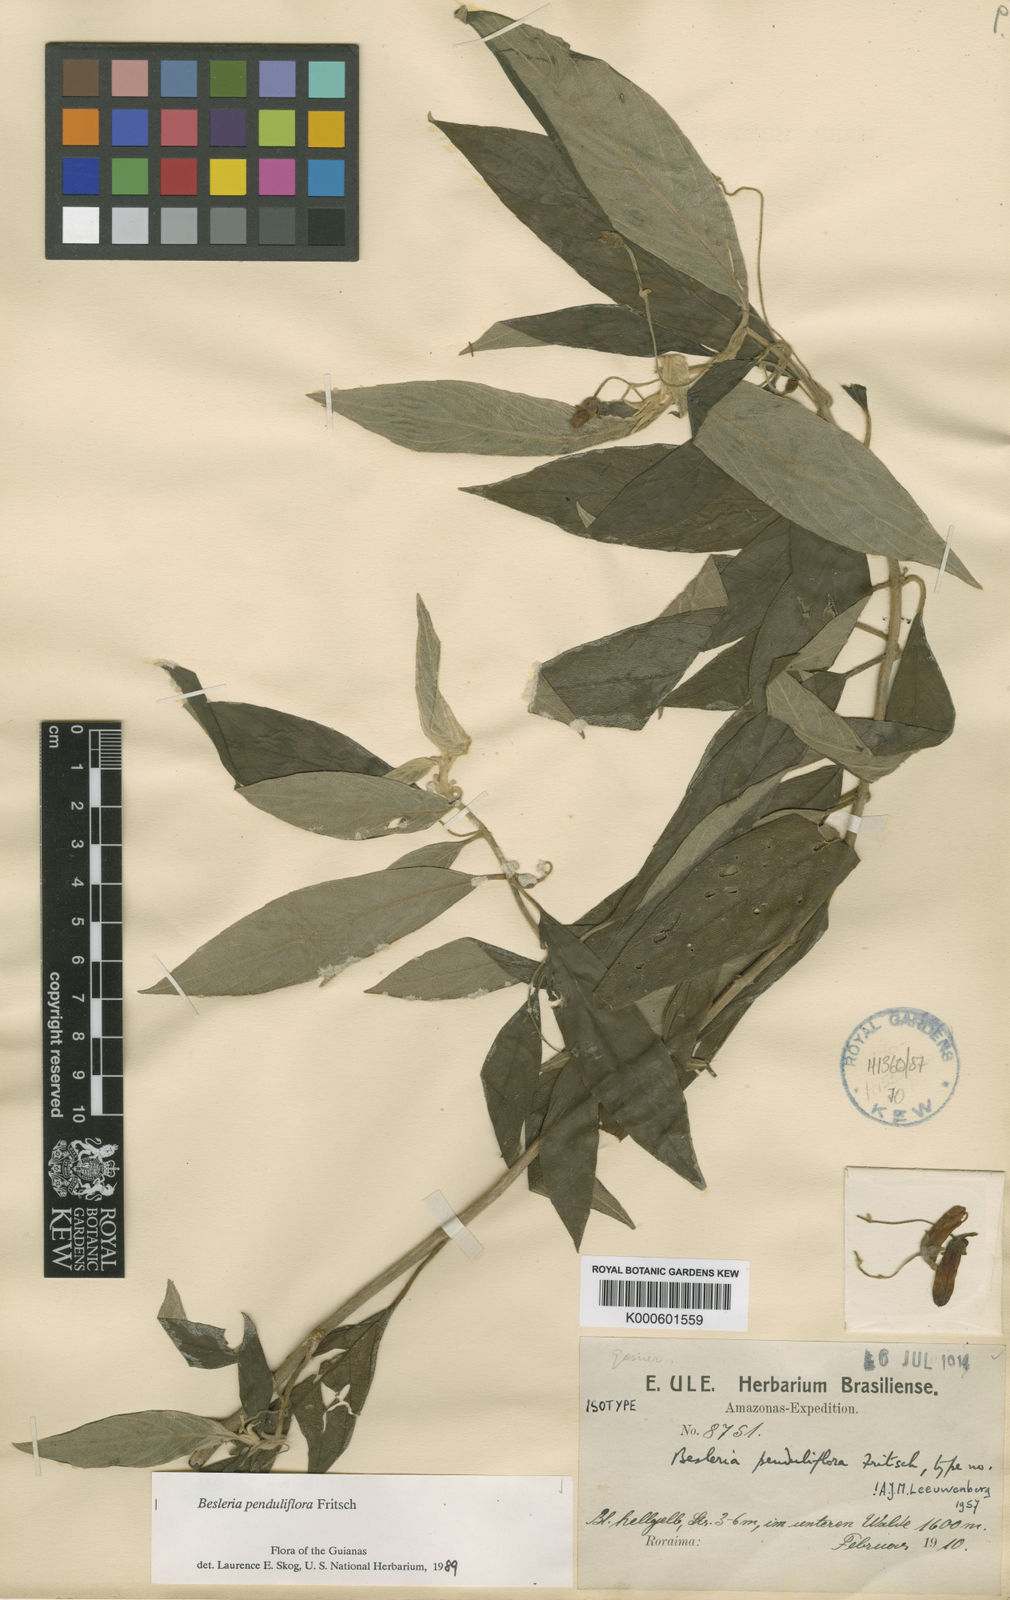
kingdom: Plantae
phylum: Tracheophyta
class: Magnoliopsida
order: Lamiales
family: Gesneriaceae
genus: Besleria
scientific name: Besleria penduliflora
